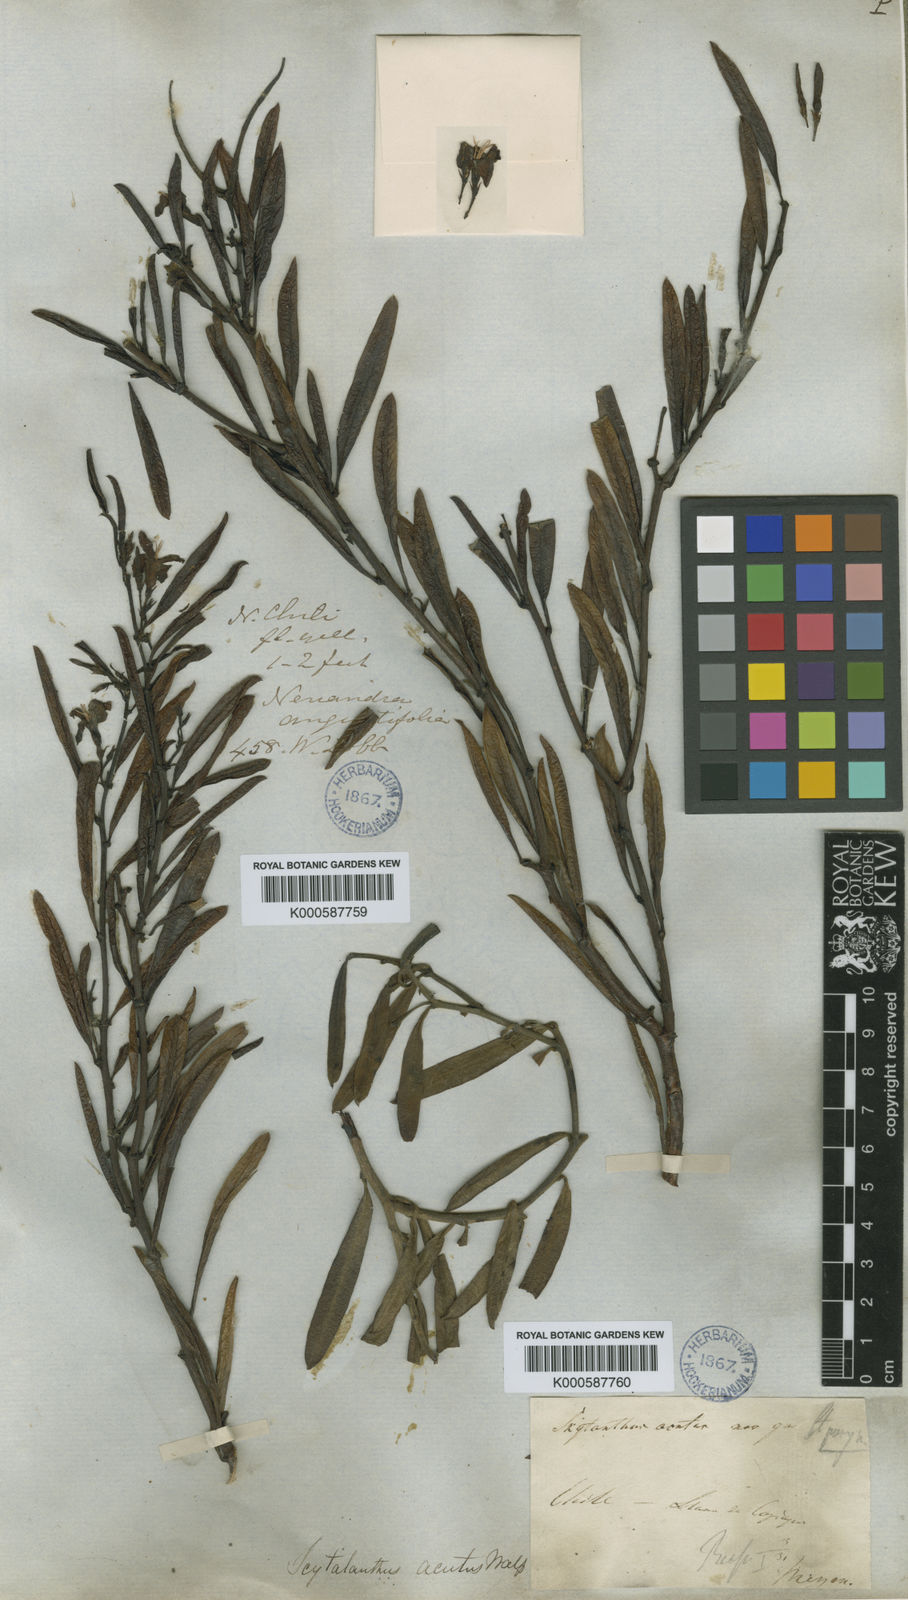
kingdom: Plantae
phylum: Tracheophyta
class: Magnoliopsida
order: Gentianales
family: Apocynaceae
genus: Skytanthus
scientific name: Skytanthus acutus
